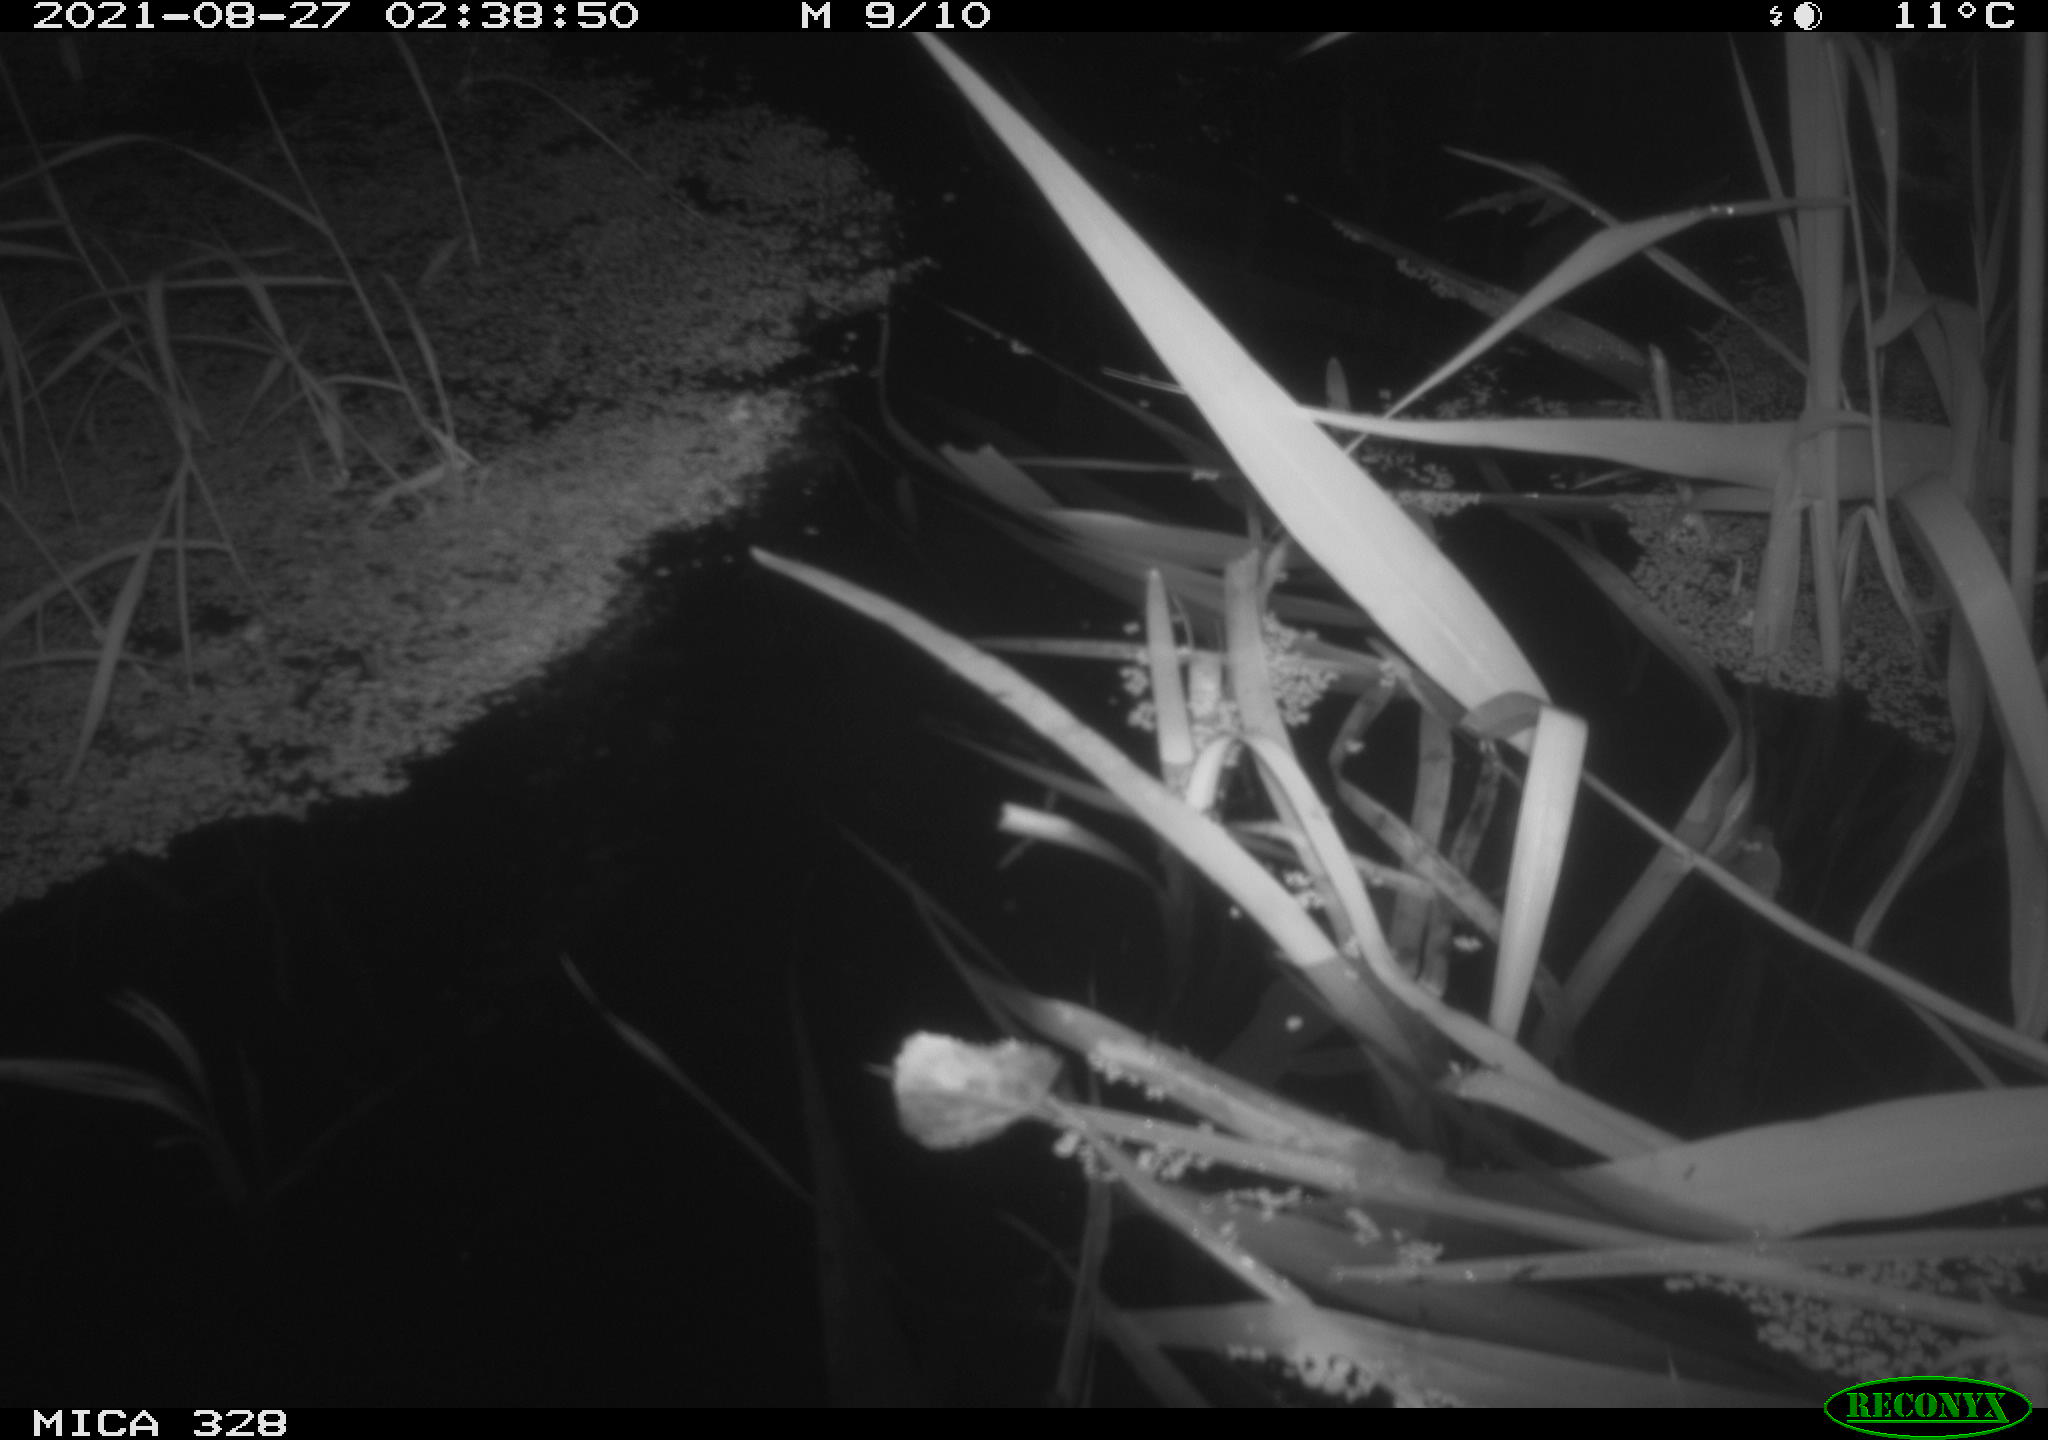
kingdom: Animalia
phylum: Chordata
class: Mammalia
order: Rodentia
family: Cricetidae
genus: Ondatra
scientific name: Ondatra zibethicus
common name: Muskrat
